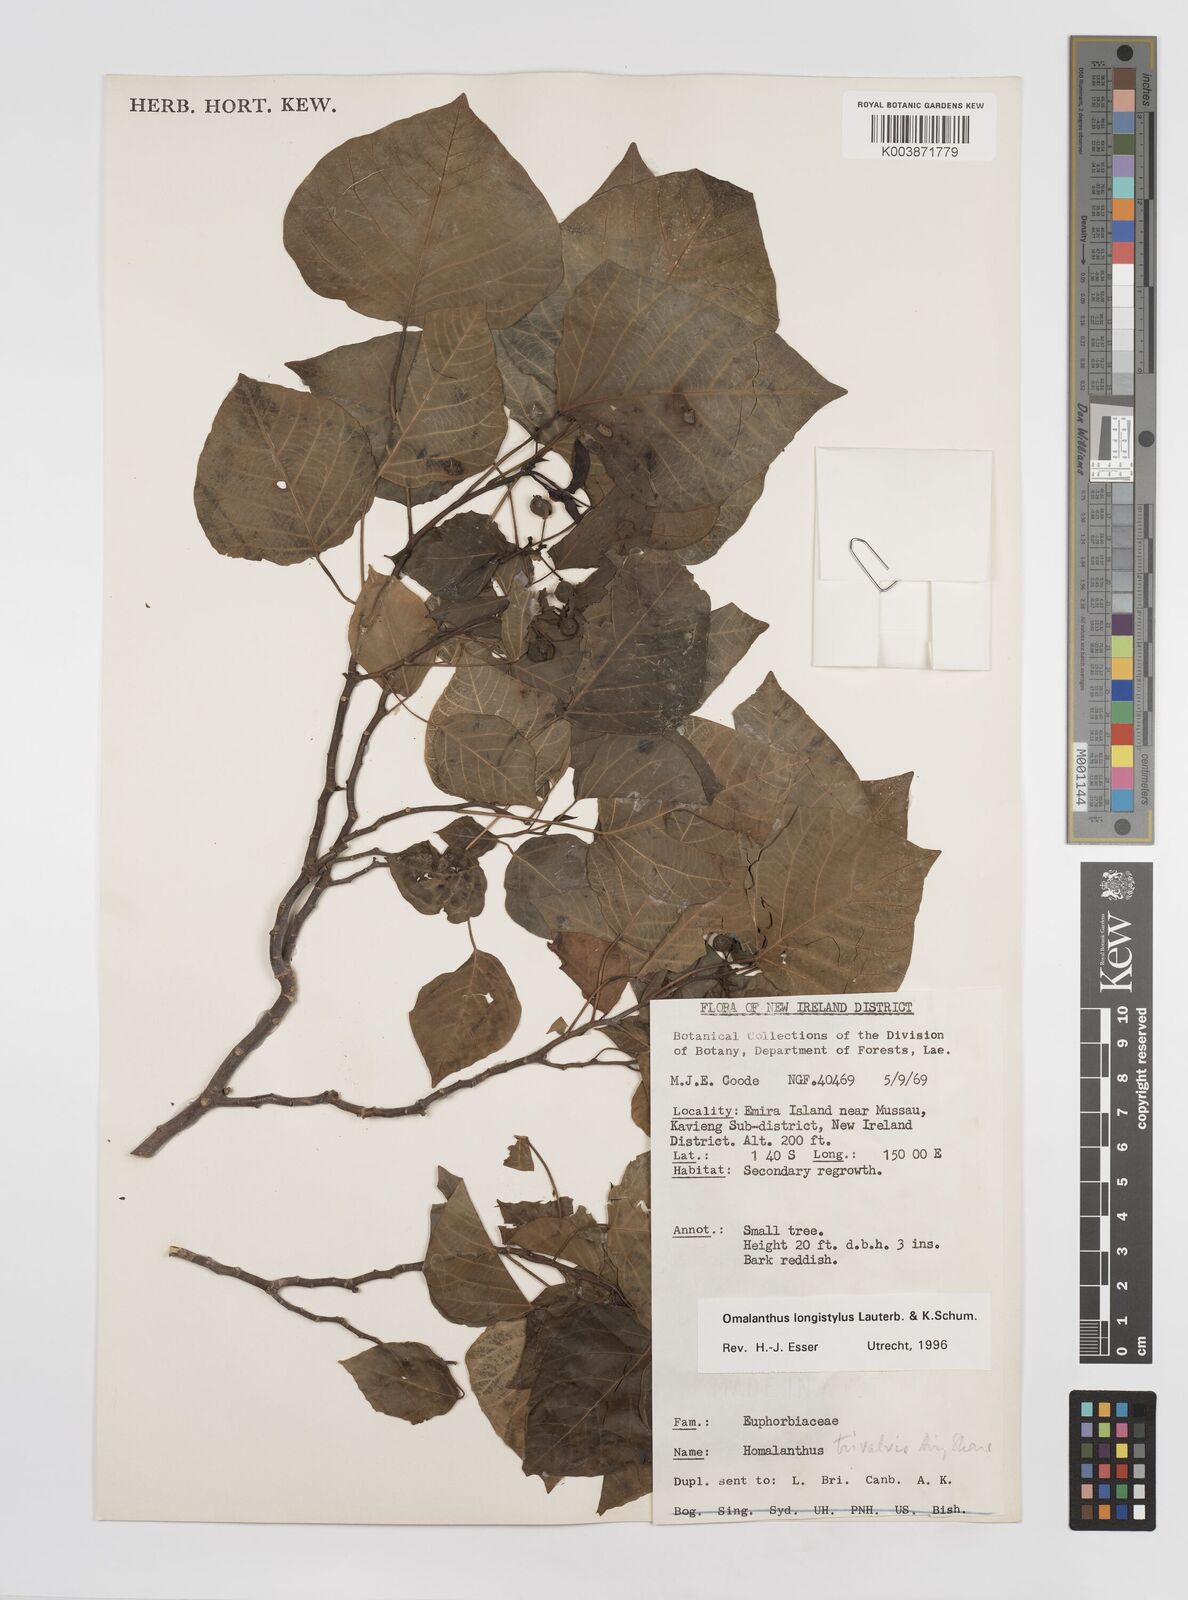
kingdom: Plantae
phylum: Tracheophyta
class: Magnoliopsida
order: Malpighiales
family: Euphorbiaceae
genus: Homalanthus
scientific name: Homalanthus longistylus
